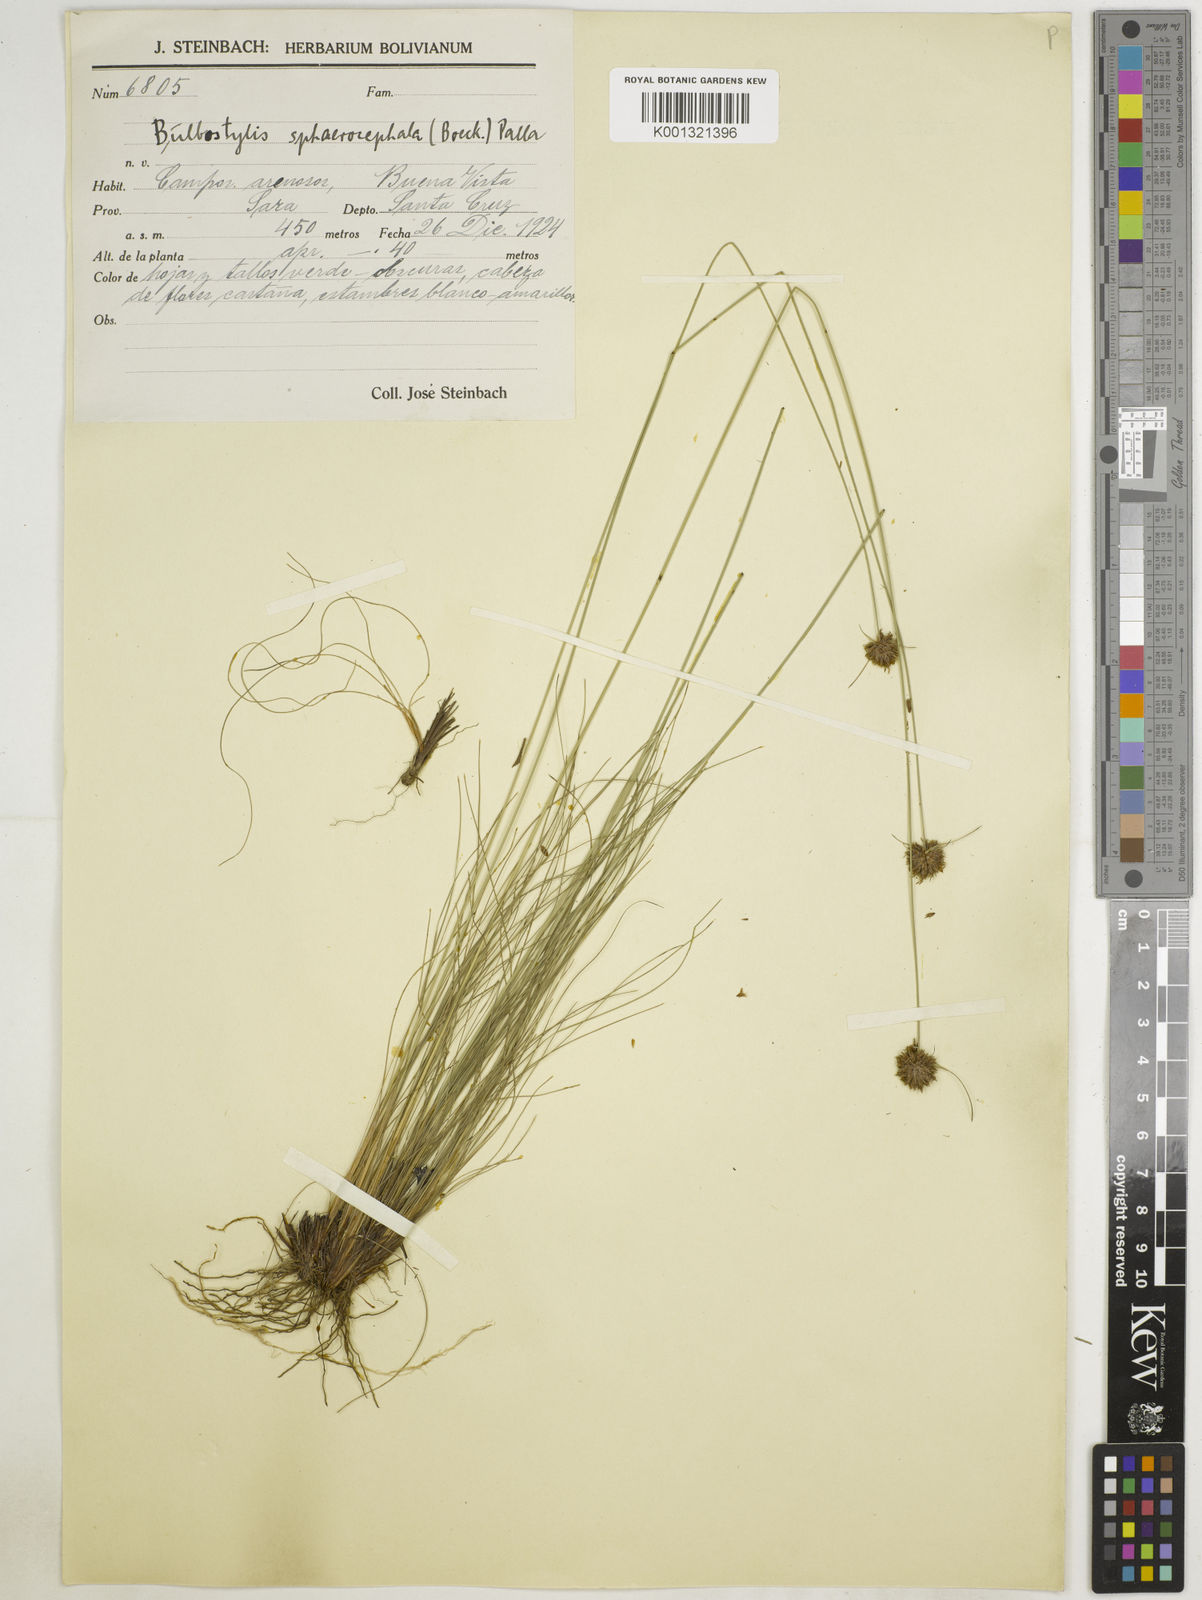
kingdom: Plantae
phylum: Tracheophyta
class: Liliopsida
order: Poales
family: Cyperaceae
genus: Bulbostylis
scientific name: Bulbostylis sphaerocephala
